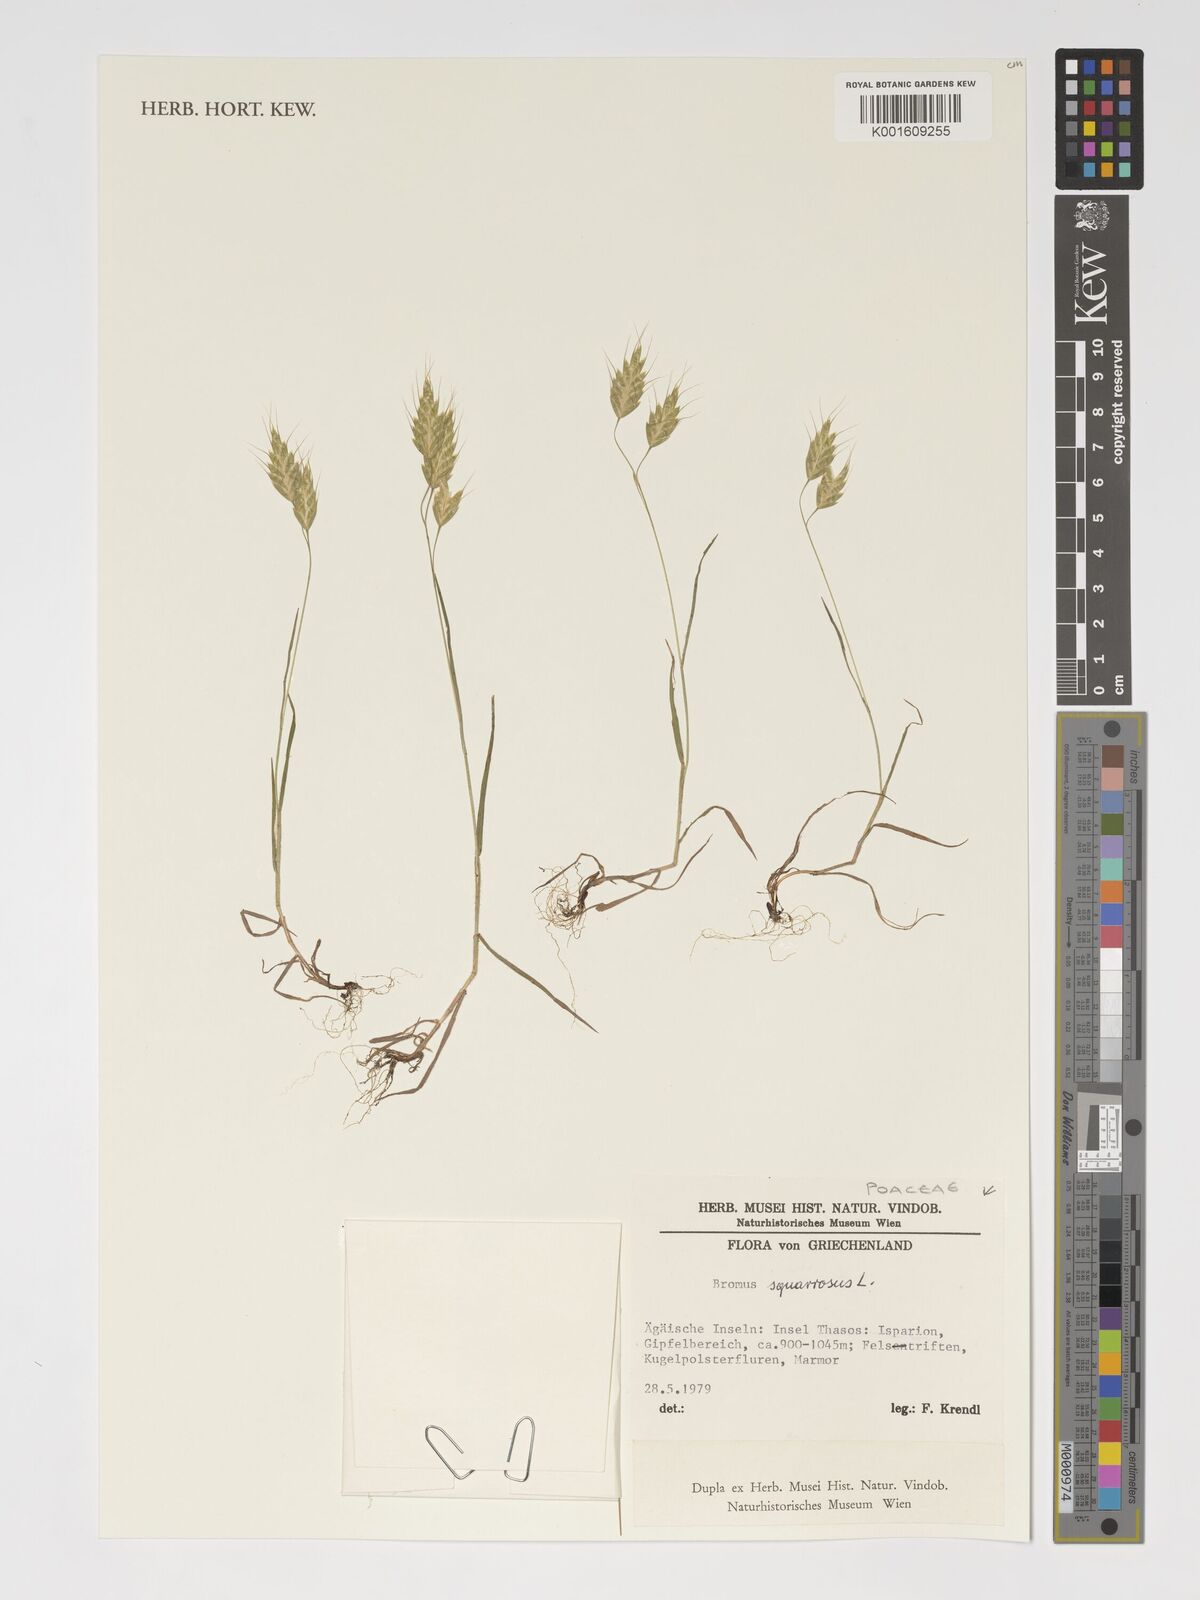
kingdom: Plantae
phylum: Tracheophyta
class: Liliopsida
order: Poales
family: Poaceae
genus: Bromus
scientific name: Bromus squarrosus
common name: Corn brome
